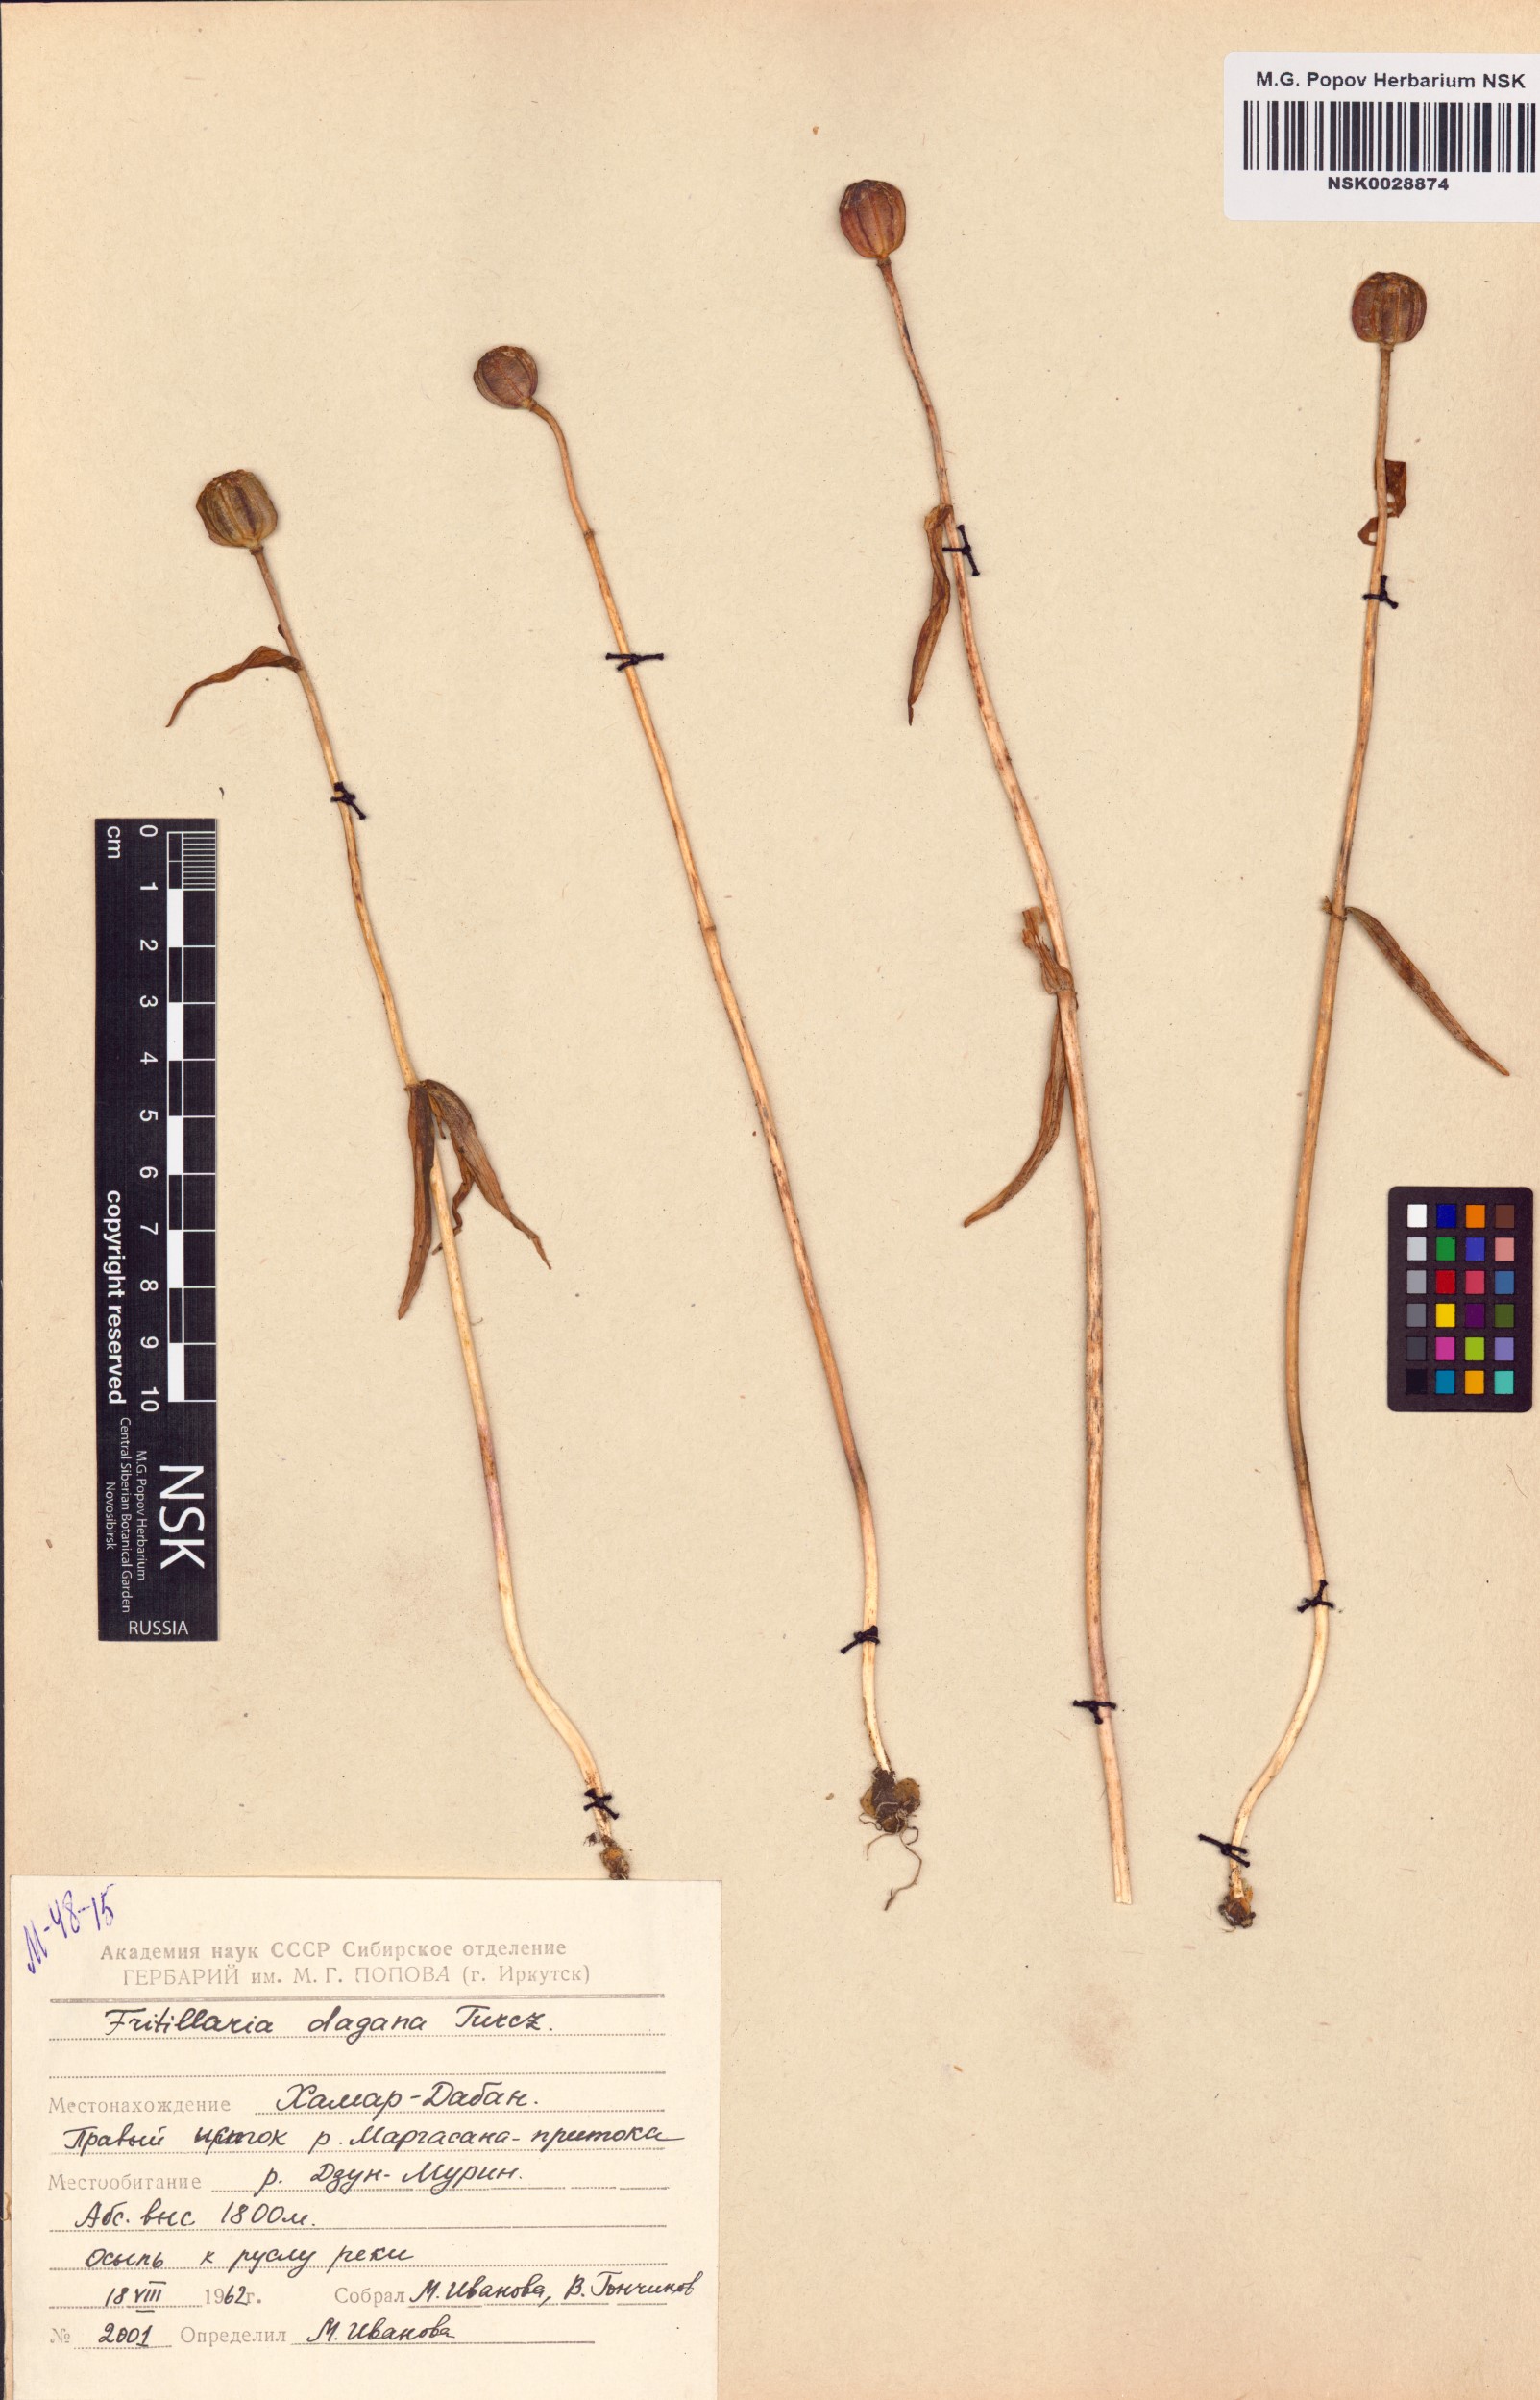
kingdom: Plantae
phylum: Tracheophyta
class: Liliopsida
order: Liliales
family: Liliaceae
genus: Fritillaria
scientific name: Fritillaria dagana
